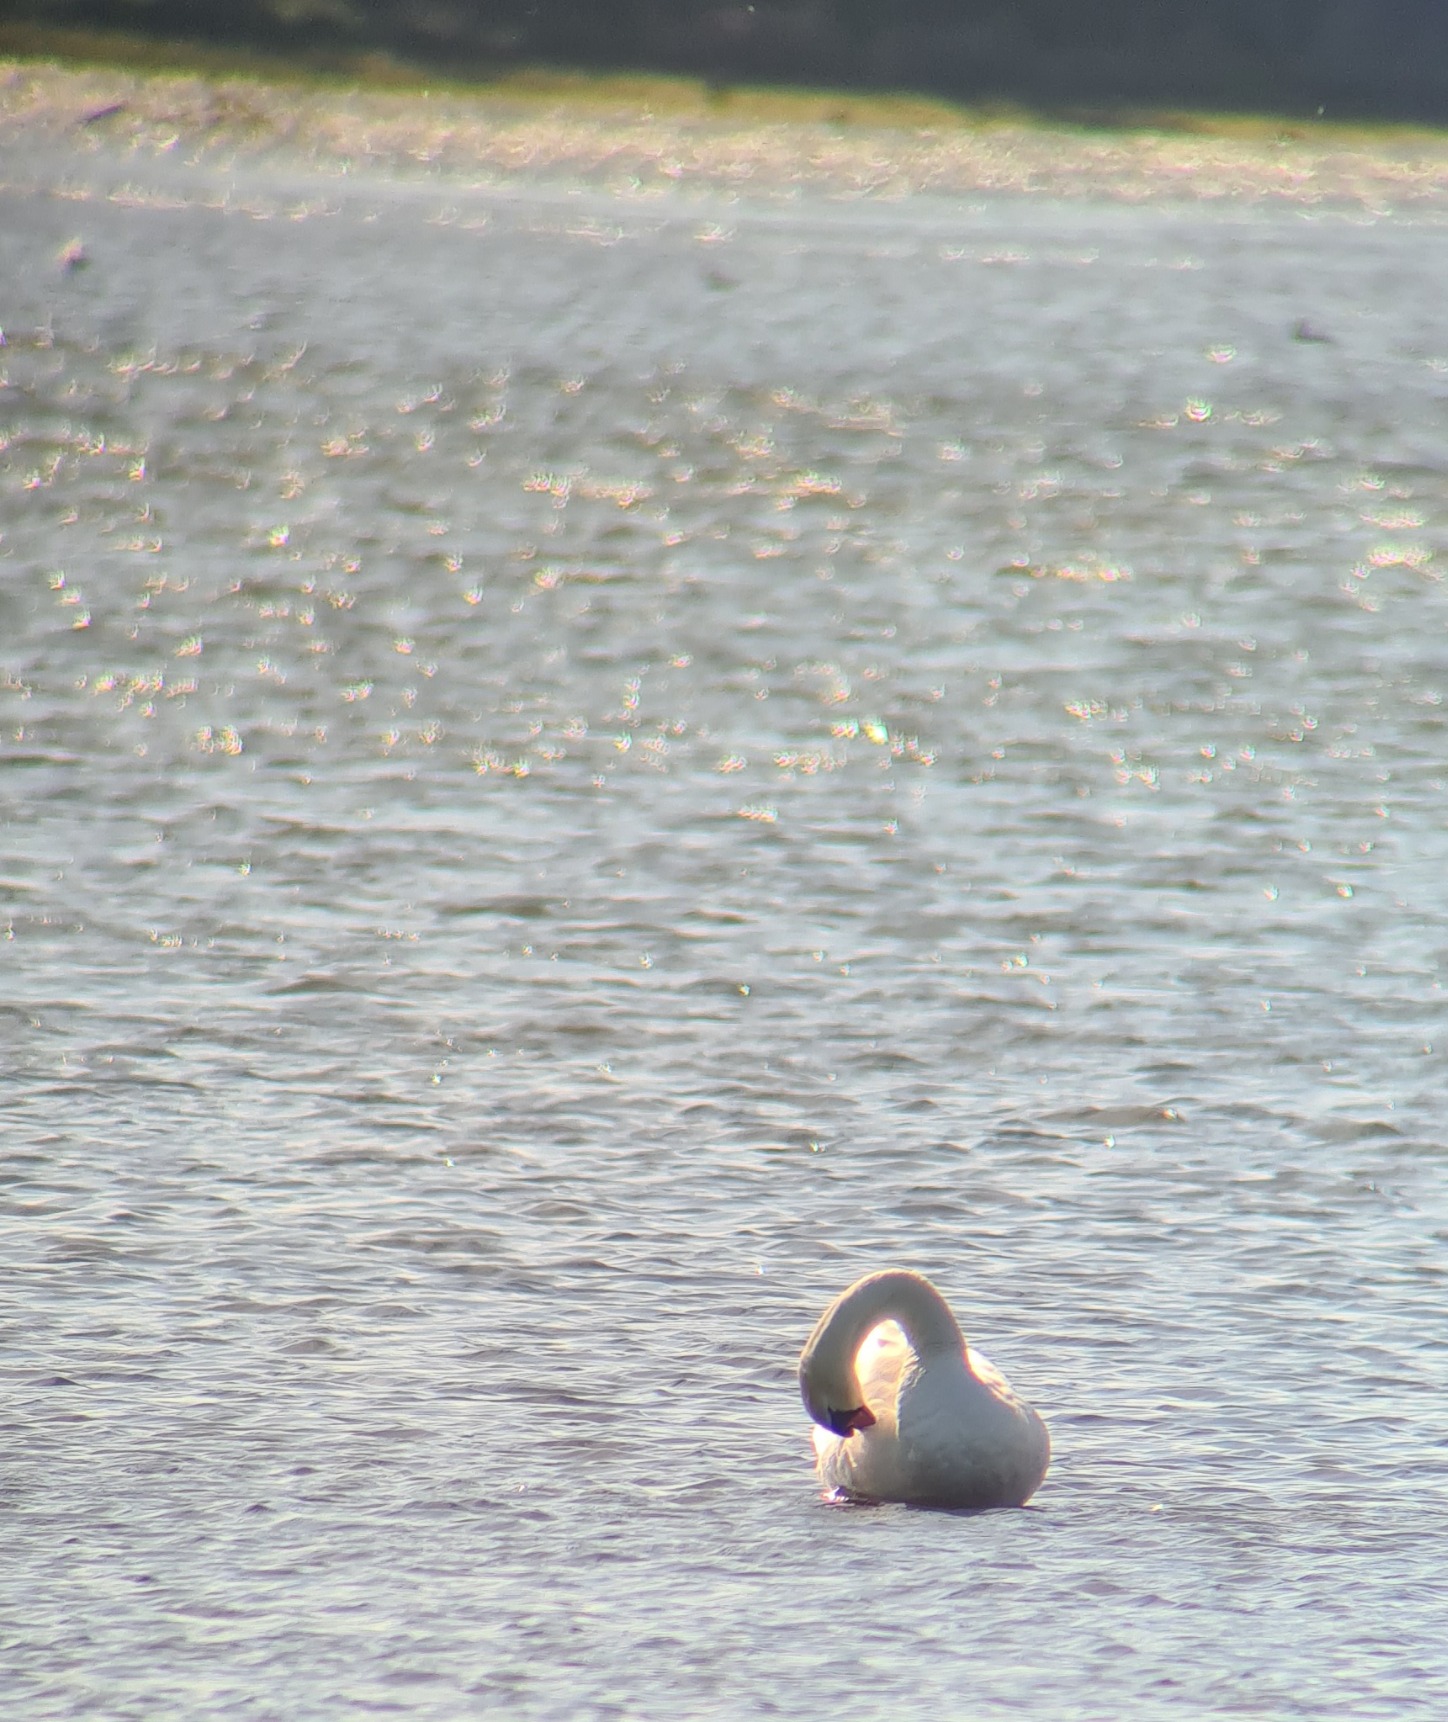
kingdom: Animalia
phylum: Chordata
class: Aves
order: Anseriformes
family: Anatidae
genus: Cygnus
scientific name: Cygnus olor
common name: Knopsvane
